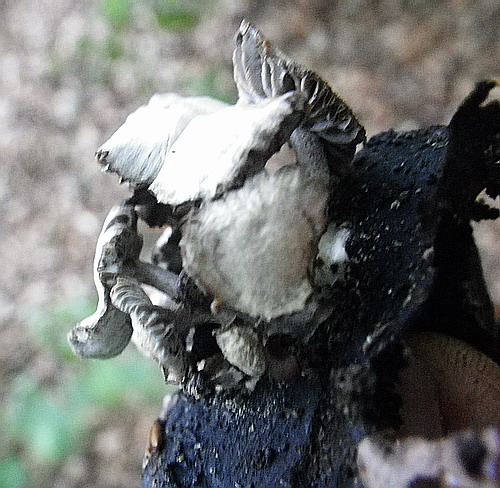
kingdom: Fungi
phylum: Basidiomycota
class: Agaricomycetes
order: Agaricales
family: Lyophyllaceae
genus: Asterophora
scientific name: Asterophora parasitica
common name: grå snyltehat
